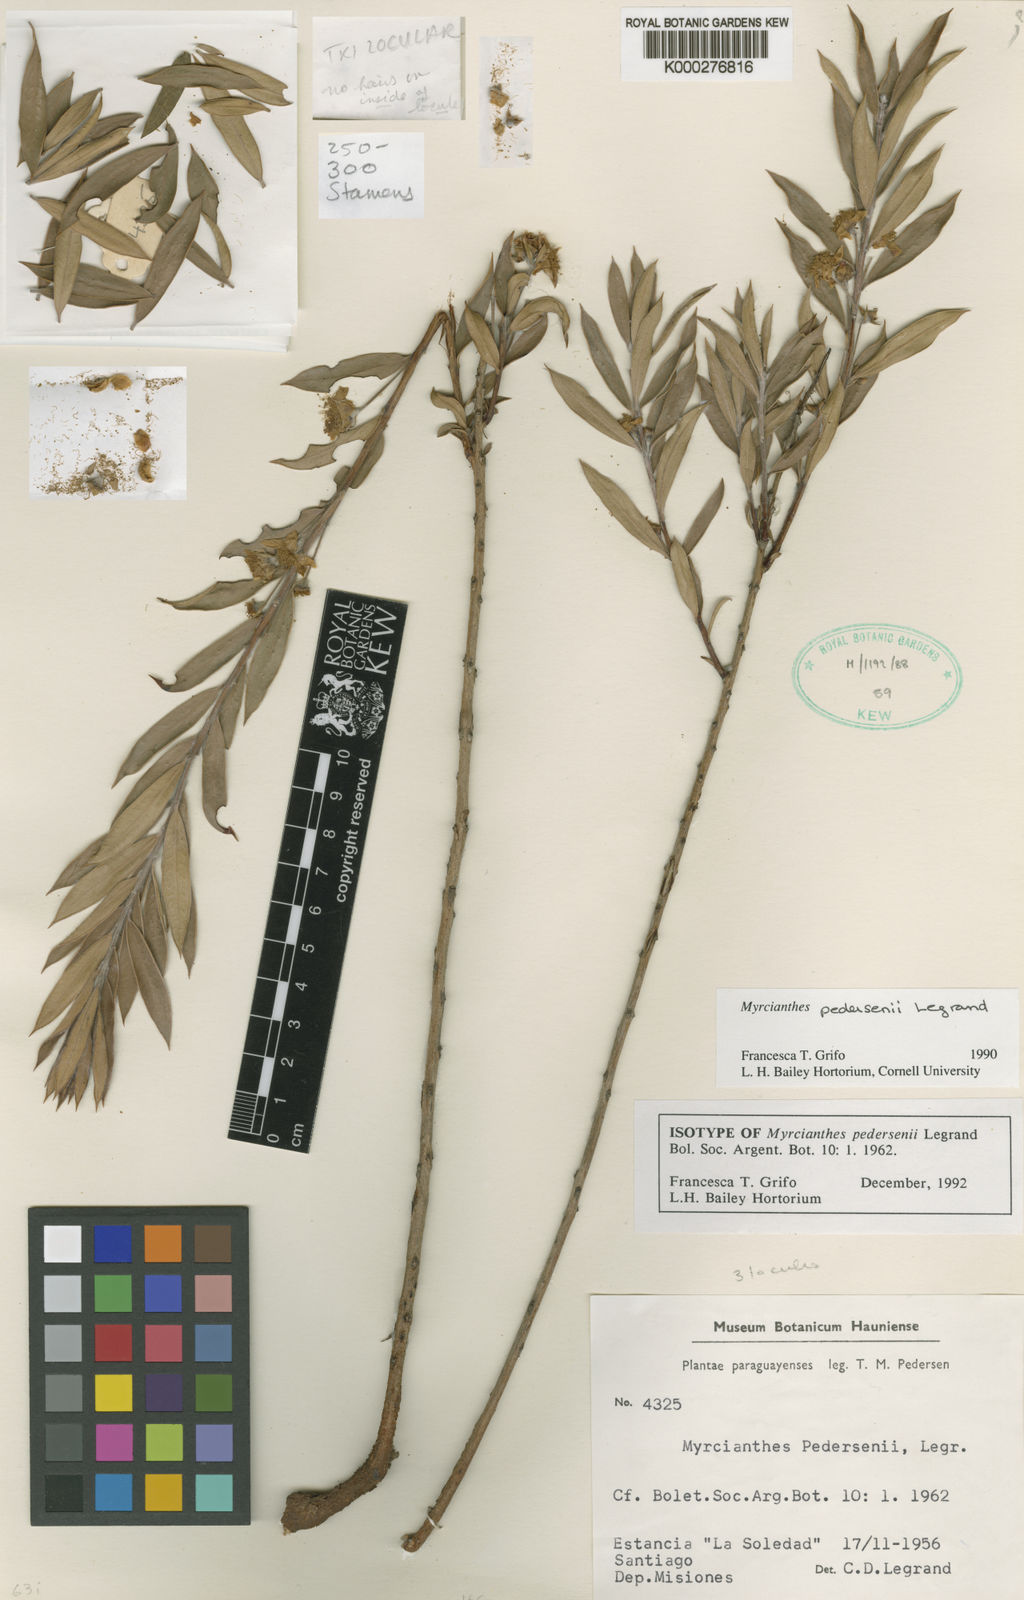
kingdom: Plantae
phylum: Tracheophyta
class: Magnoliopsida
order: Myrtales
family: Myrtaceae
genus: Myrcianthes
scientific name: Myrcianthes pedersenii
